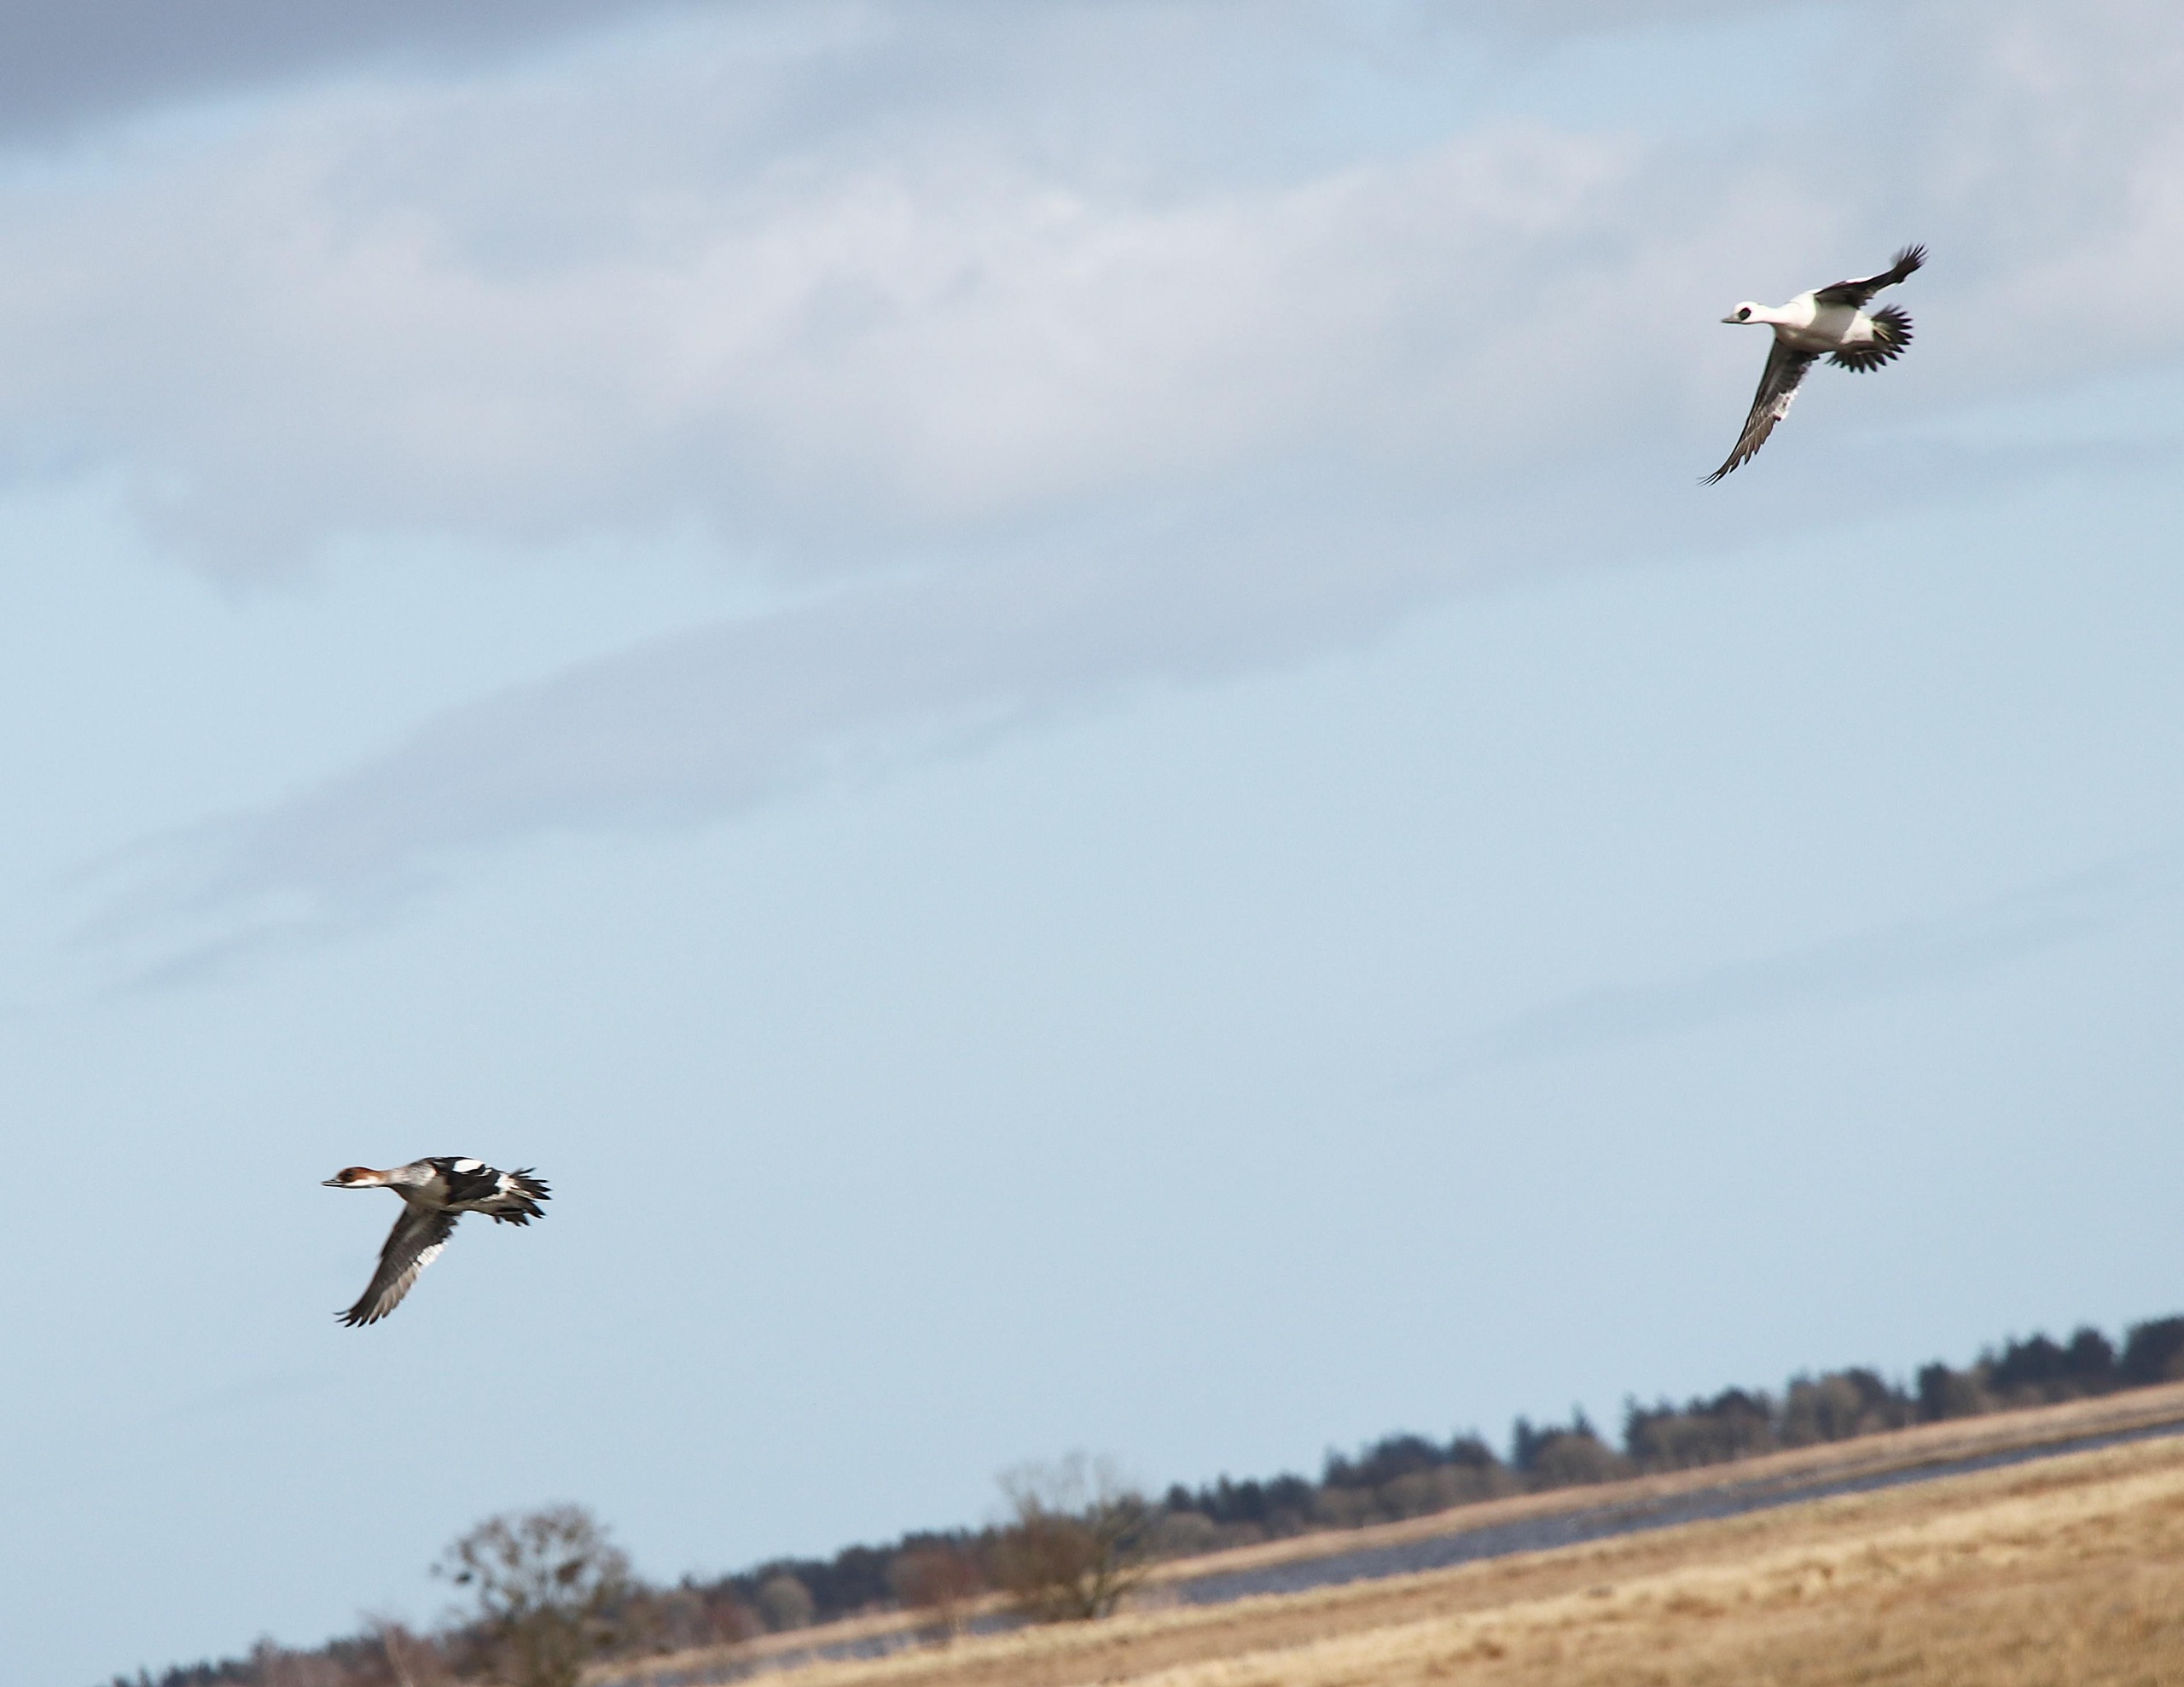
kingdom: Animalia
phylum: Chordata
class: Aves
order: Anseriformes
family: Anatidae
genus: Mergellus
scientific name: Mergellus albellus
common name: Lille skallesluger
